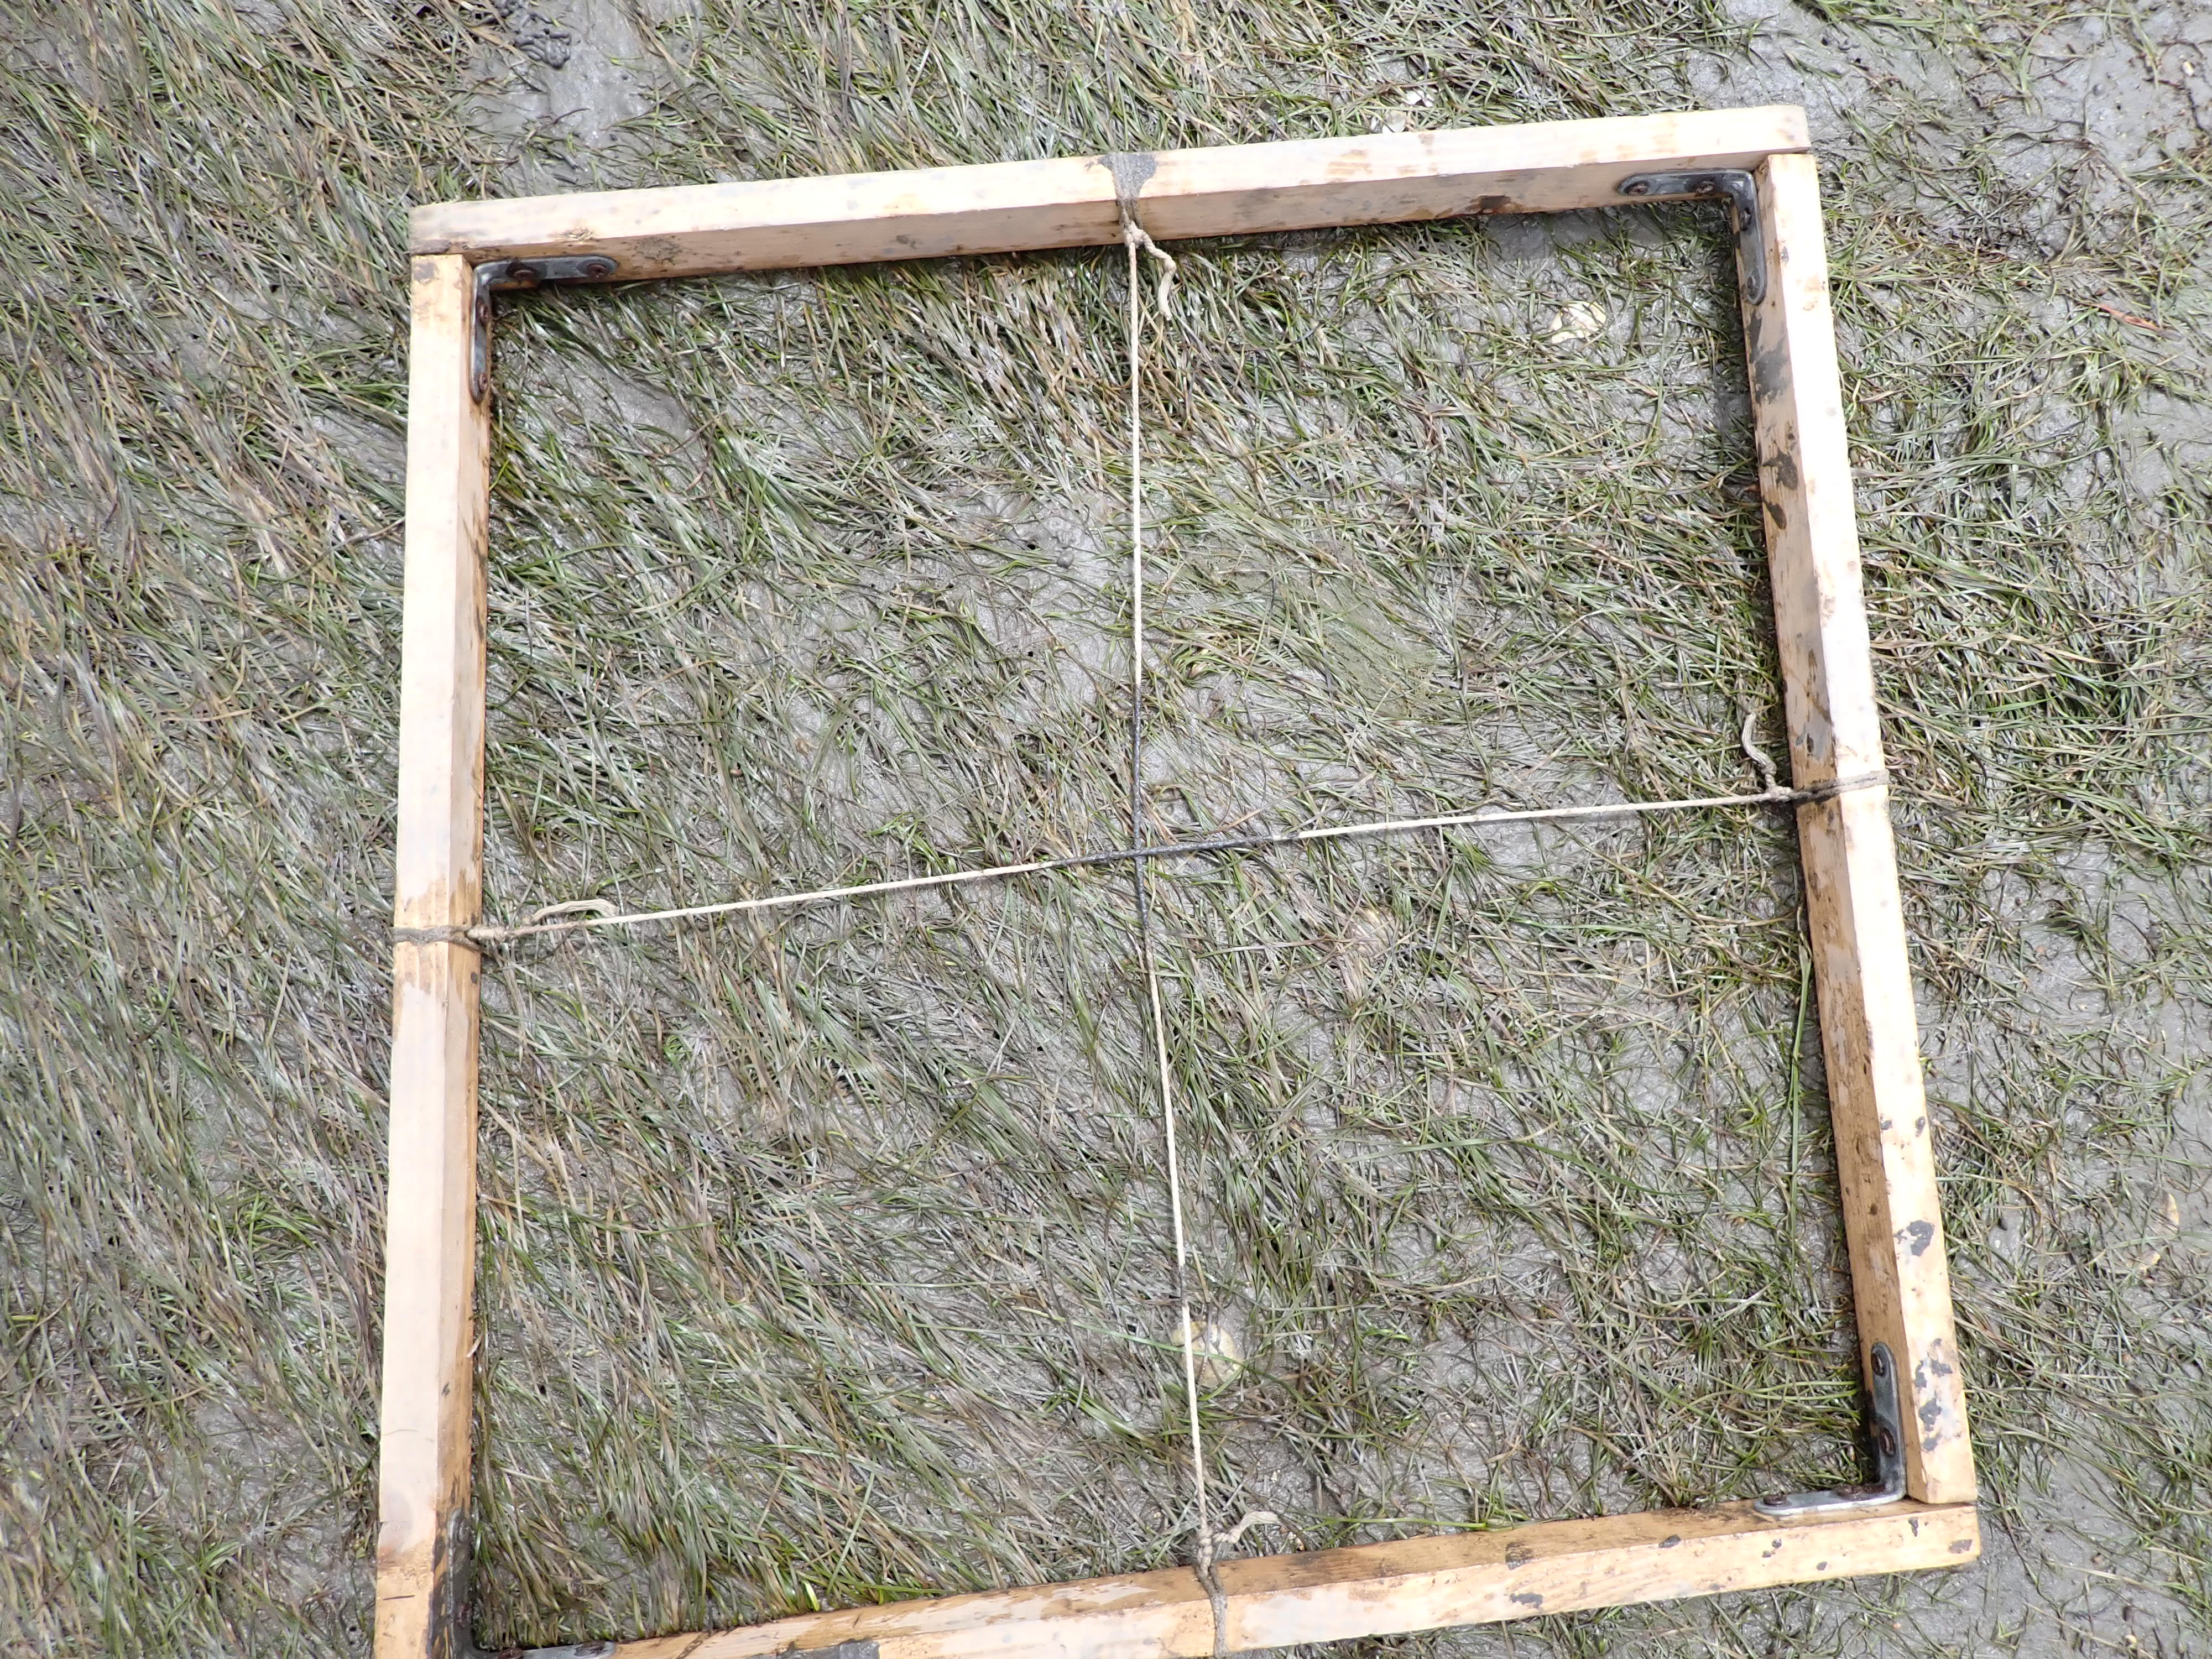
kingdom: Plantae
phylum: Tracheophyta
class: Liliopsida
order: Alismatales
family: Zosteraceae
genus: Zostera
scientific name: Zostera noltii
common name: Dwarf eelgrass
